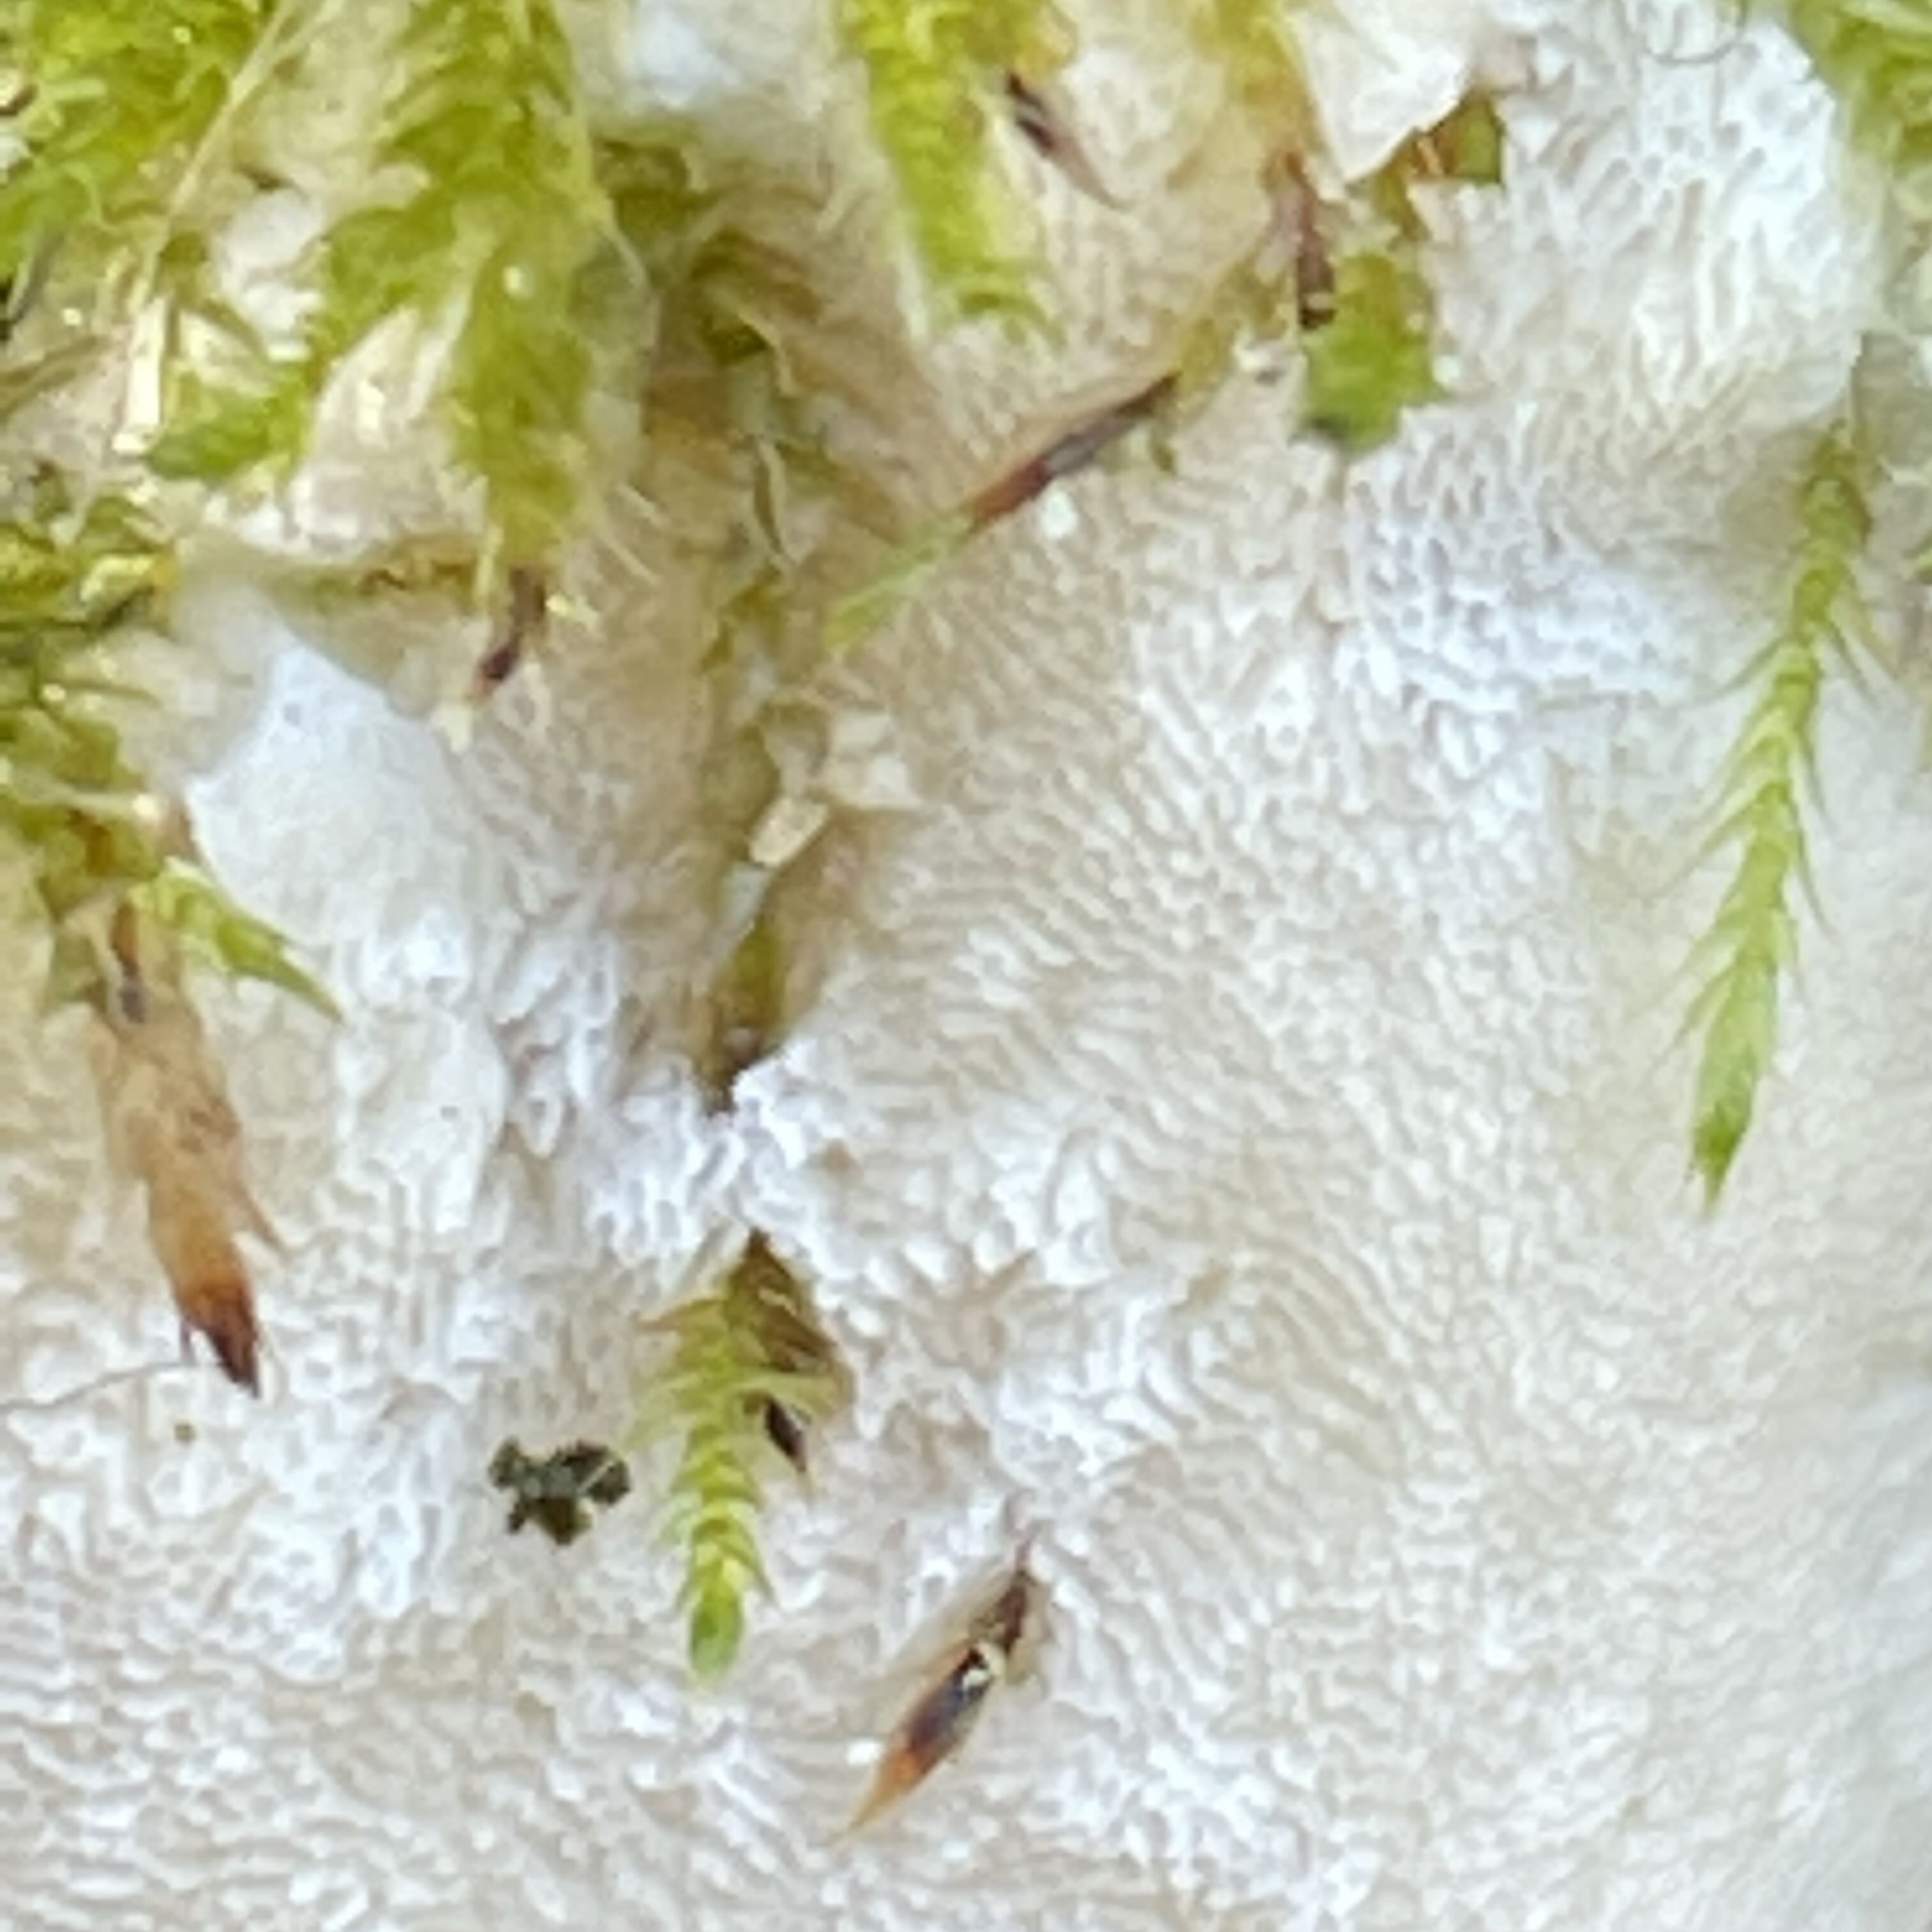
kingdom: Fungi
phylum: Basidiomycota
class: Agaricomycetes
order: Hymenochaetales
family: Oxyporaceae
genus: Oxyporus
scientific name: Oxyporus populinus
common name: sammenvokset trylleporesvamp
